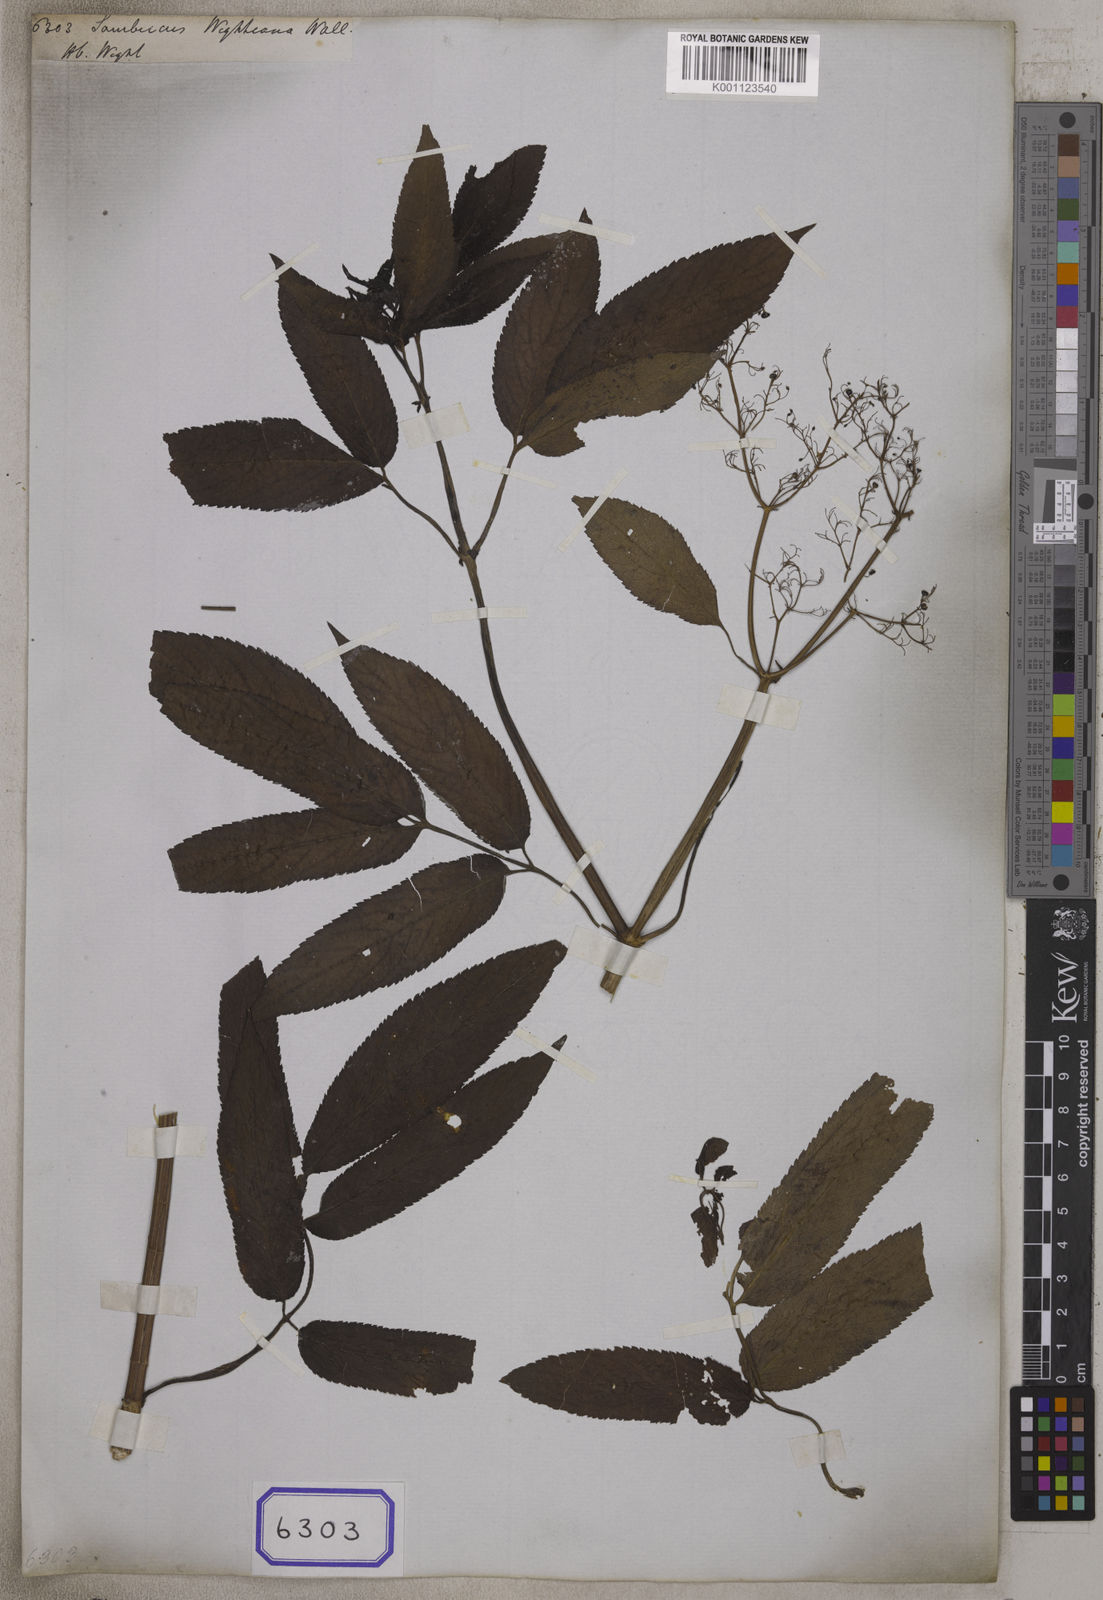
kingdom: Plantae
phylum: Tracheophyta
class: Magnoliopsida
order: Dipsacales
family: Viburnaceae
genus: Sambucus
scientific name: Sambucus
